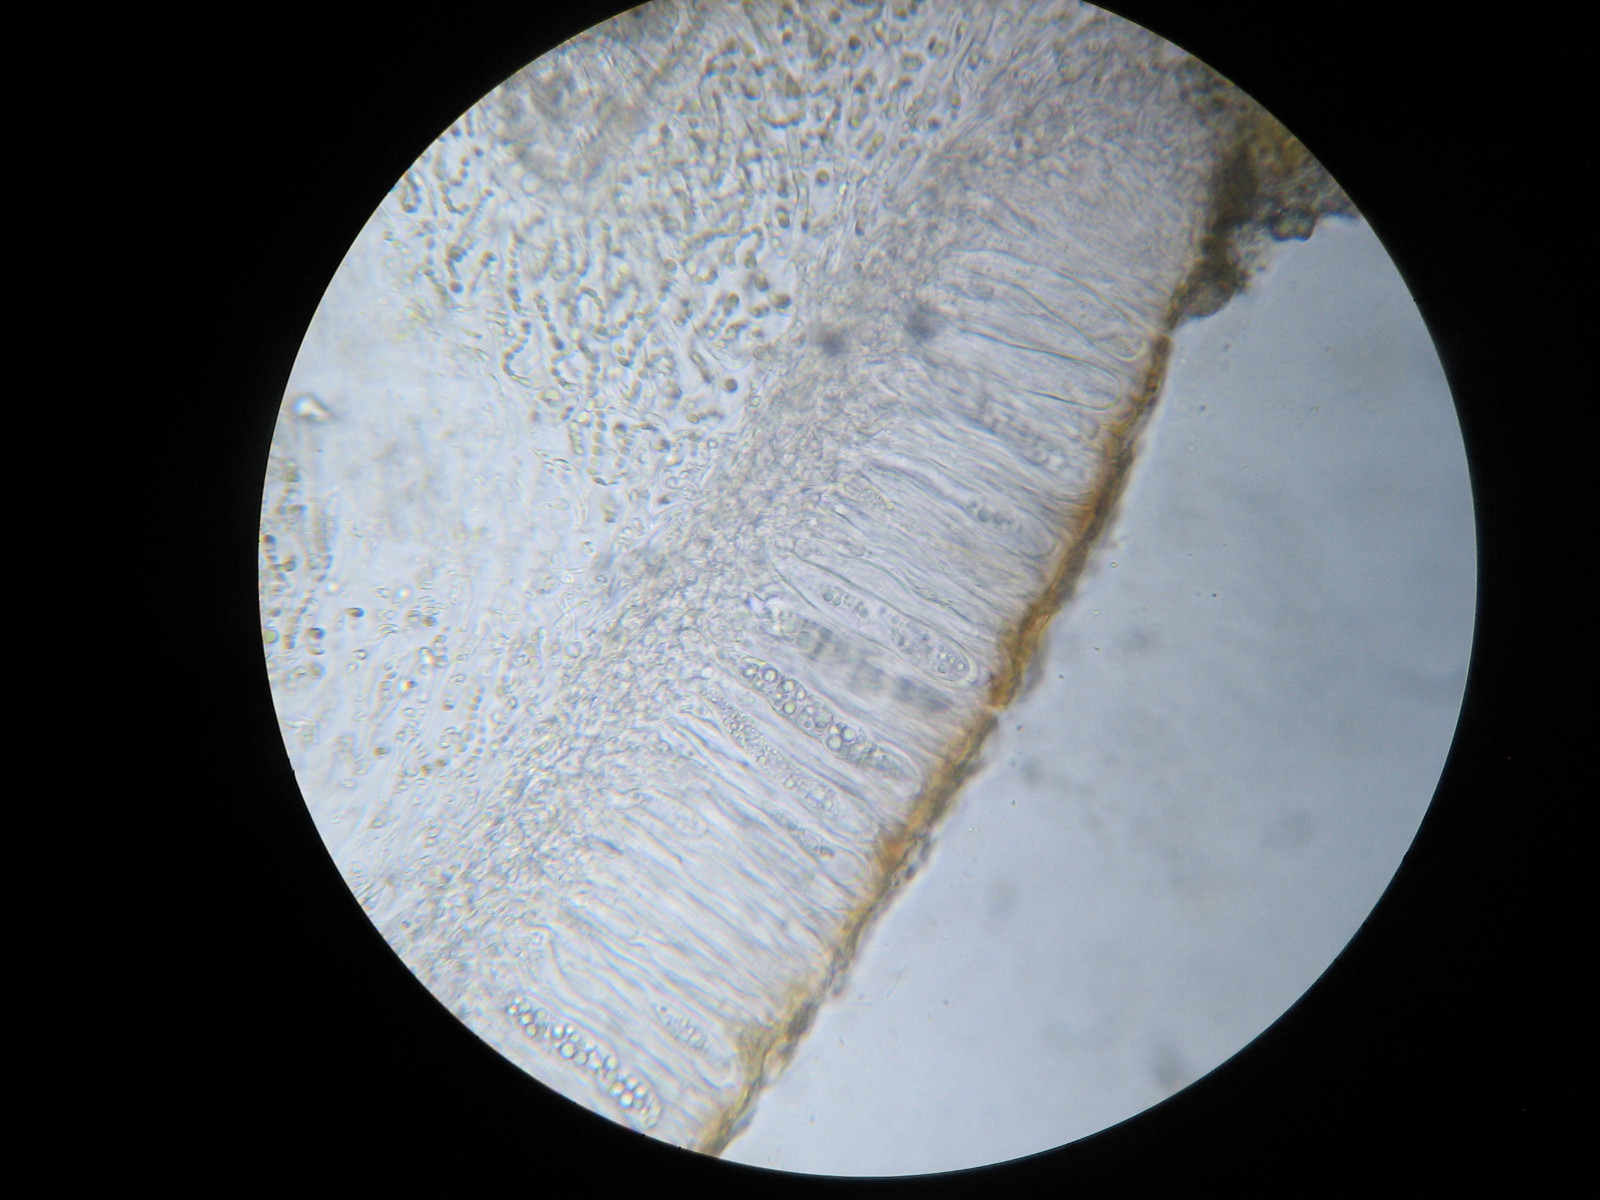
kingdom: Fungi
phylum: Ascomycota
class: Lecanoromycetes
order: Peltigerales
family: Collemataceae
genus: Enchylium
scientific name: Enchylium limosum
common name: dynd-bævrelav
